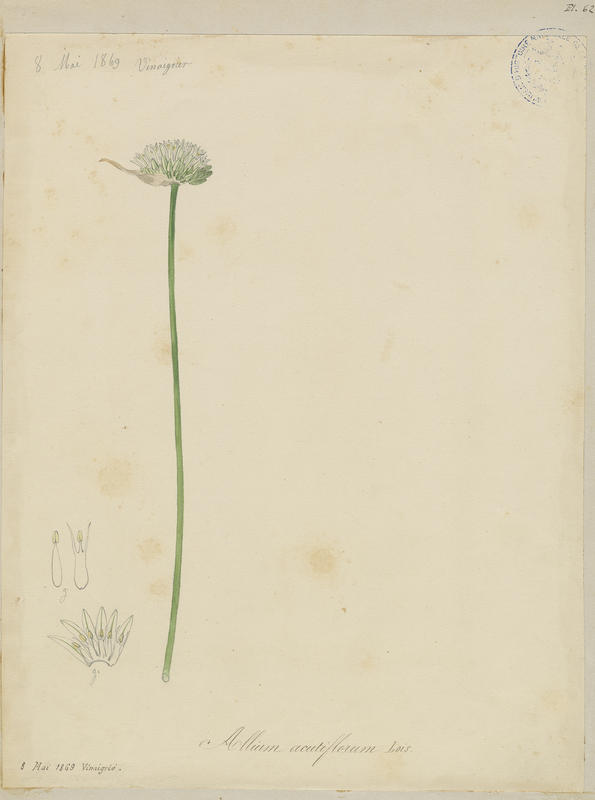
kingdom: Plantae
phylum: Tracheophyta
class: Liliopsida
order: Asparagales
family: Amaryllidaceae
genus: Allium
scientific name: Allium acutiflorum
